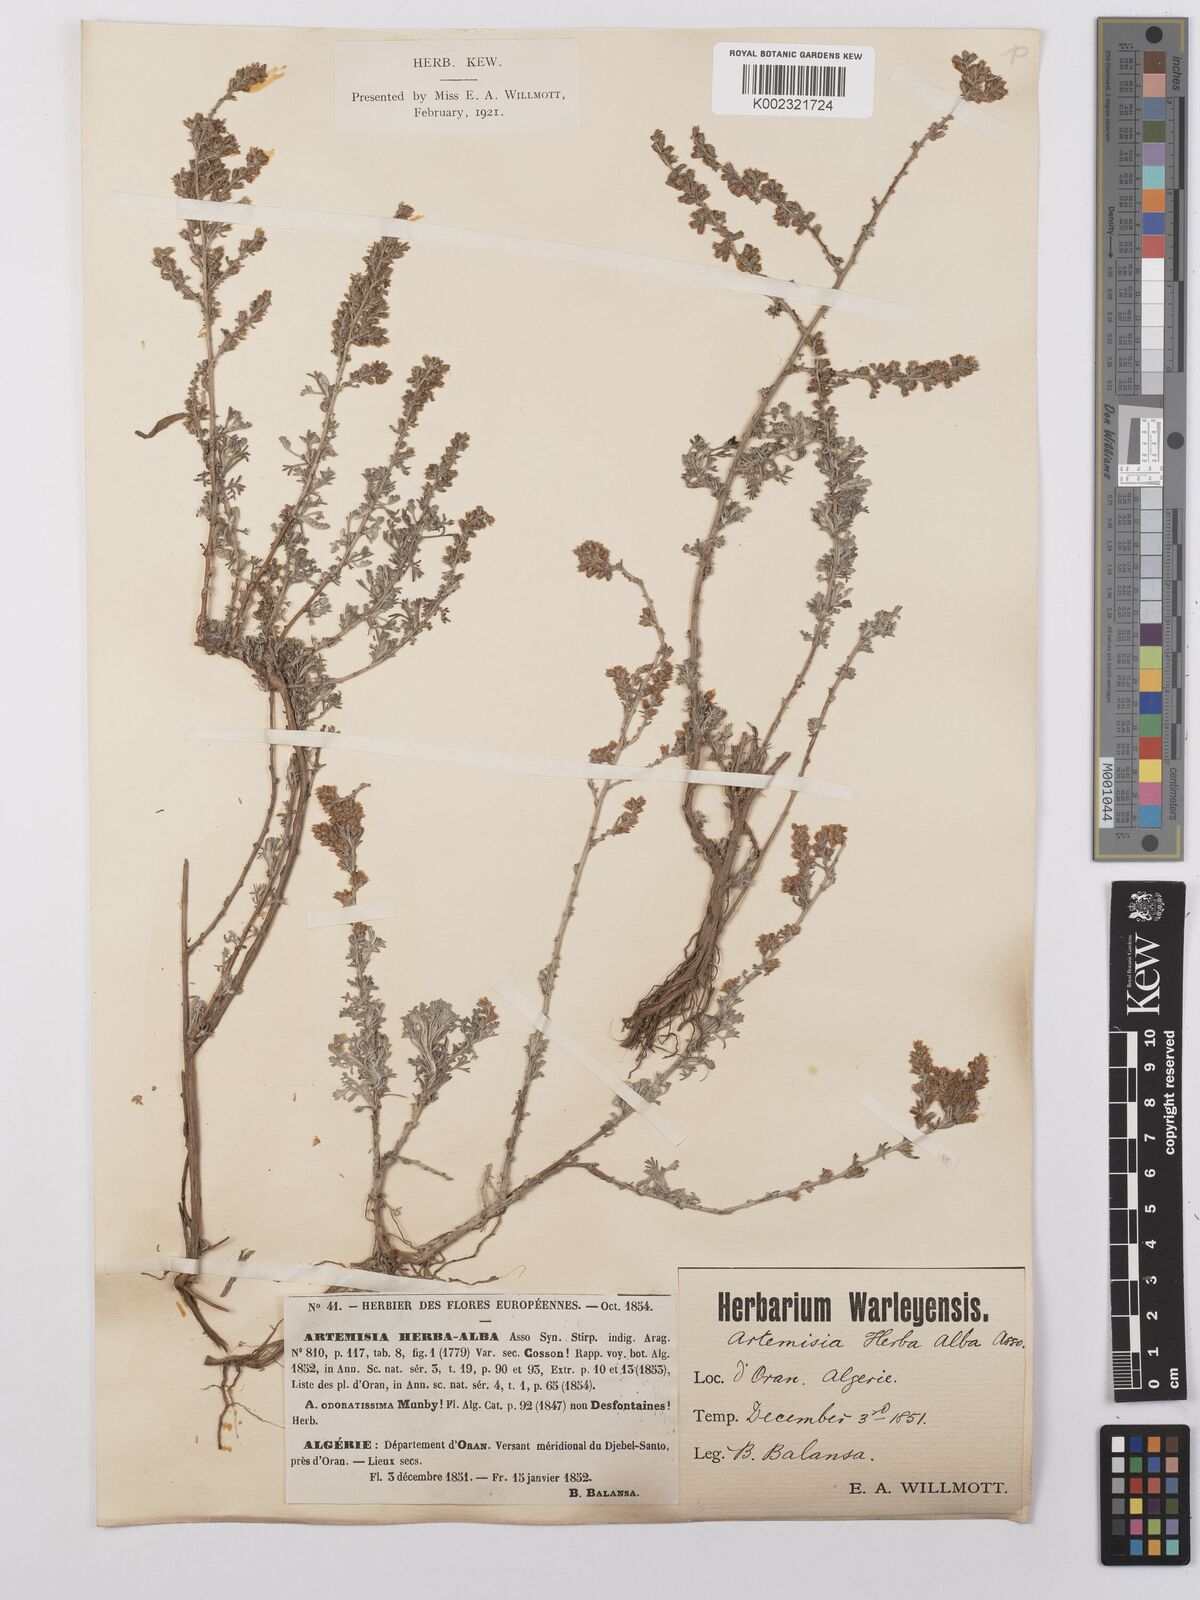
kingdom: Plantae
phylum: Tracheophyta
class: Magnoliopsida
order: Asterales
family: Asteraceae
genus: Artemisia
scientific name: Artemisia herba-alba
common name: White wormwood
